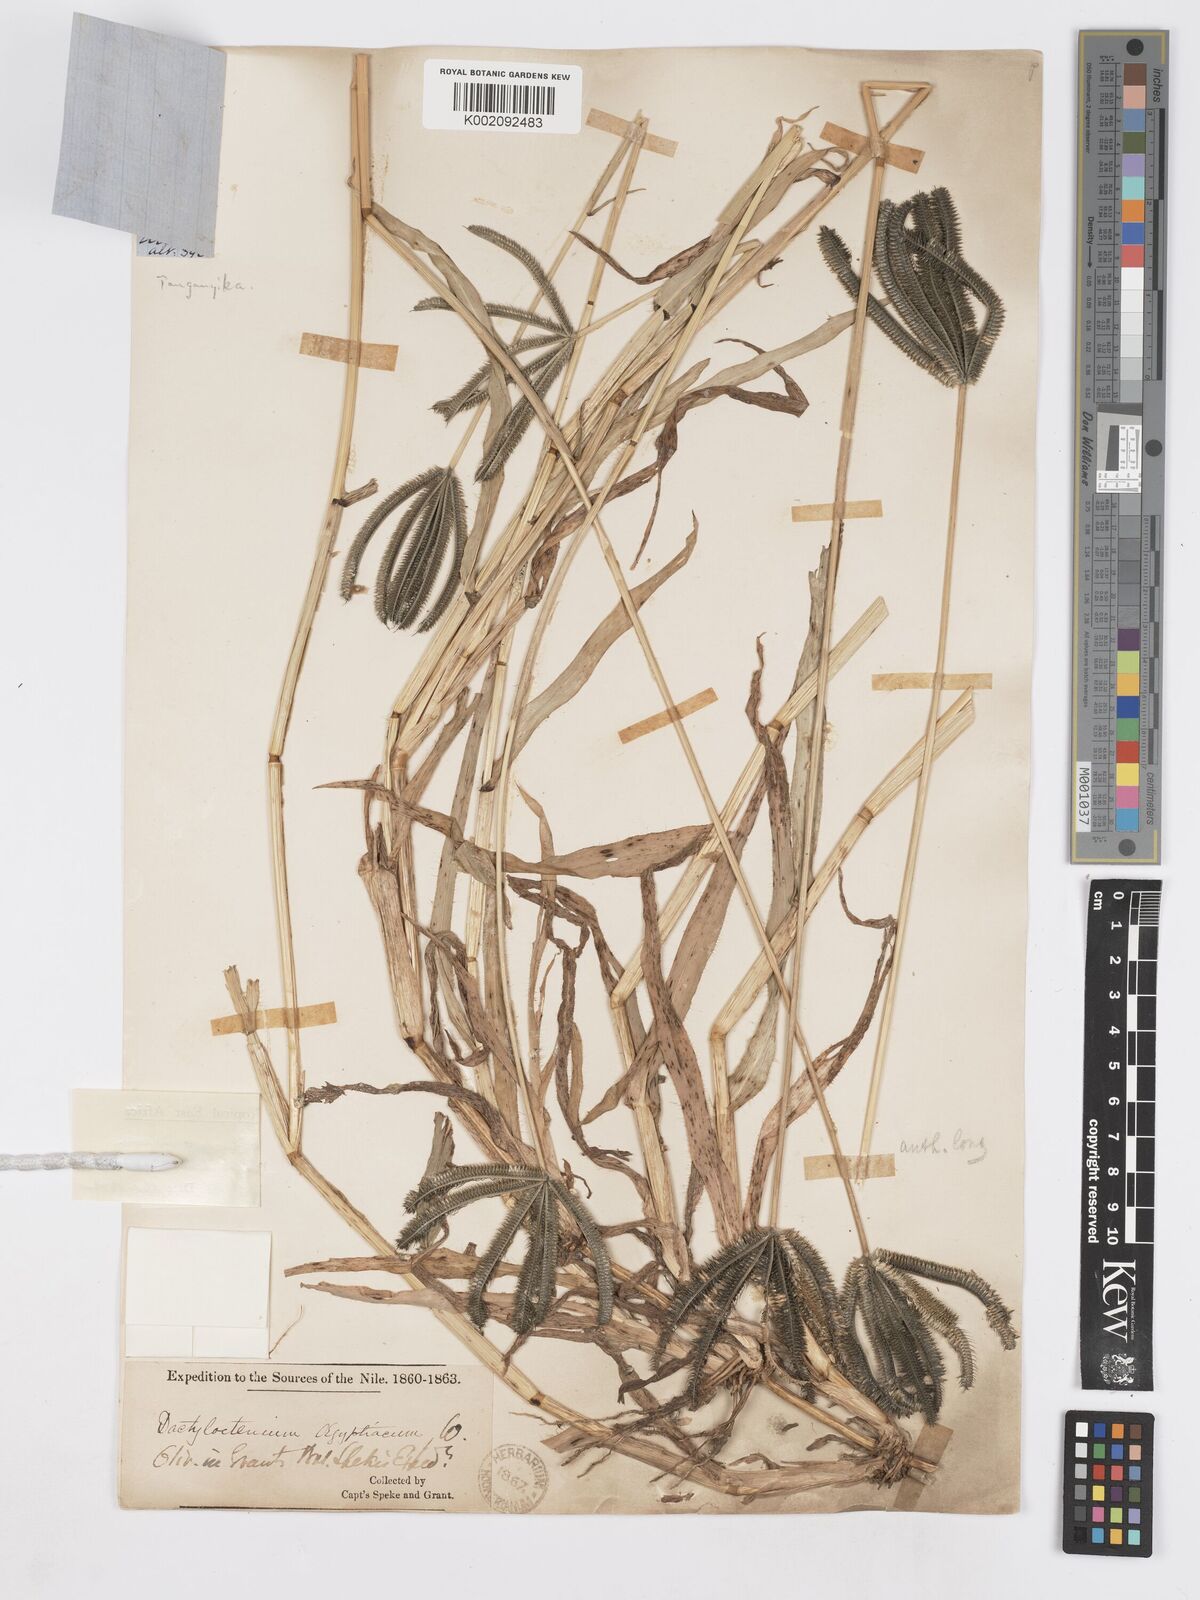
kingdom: Plantae
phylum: Tracheophyta
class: Liliopsida
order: Poales
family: Poaceae
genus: Dactyloctenium
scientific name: Dactyloctenium giganteum
